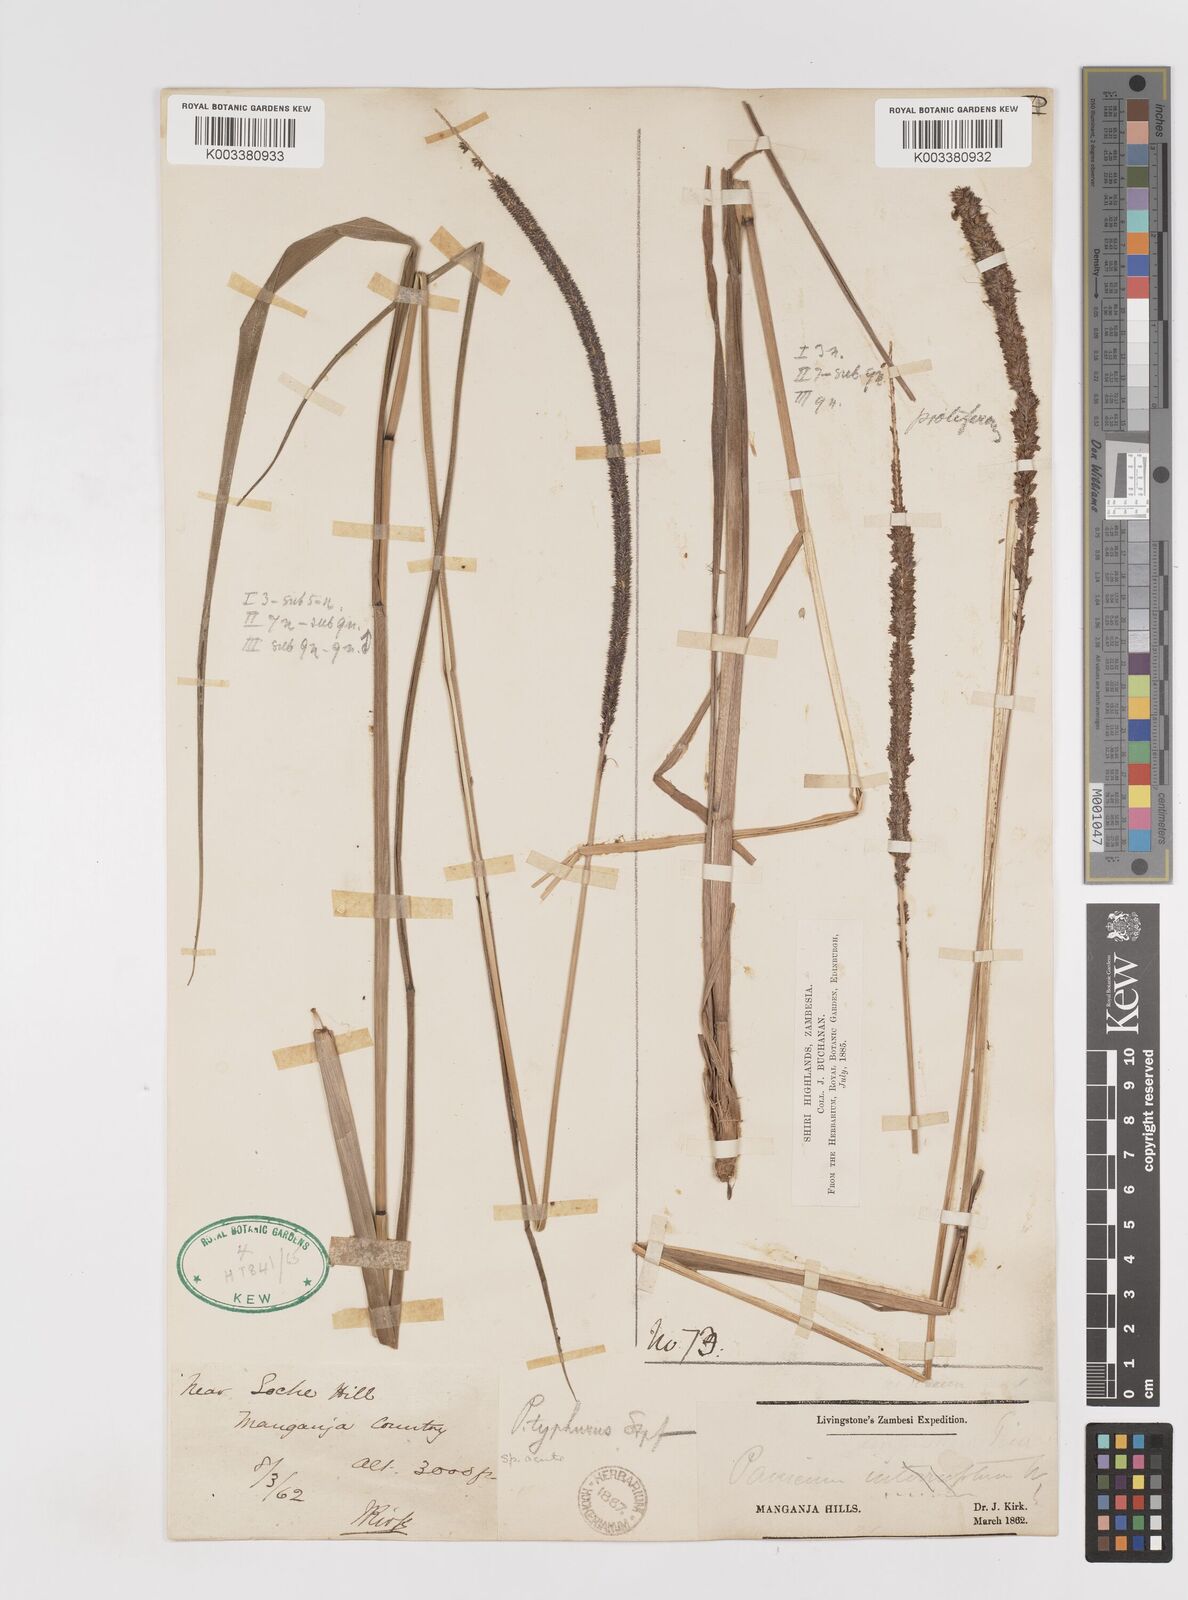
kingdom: Plantae
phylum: Tracheophyta
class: Liliopsida
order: Poales
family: Poaceae
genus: Sacciolepis
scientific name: Sacciolepis typhura
